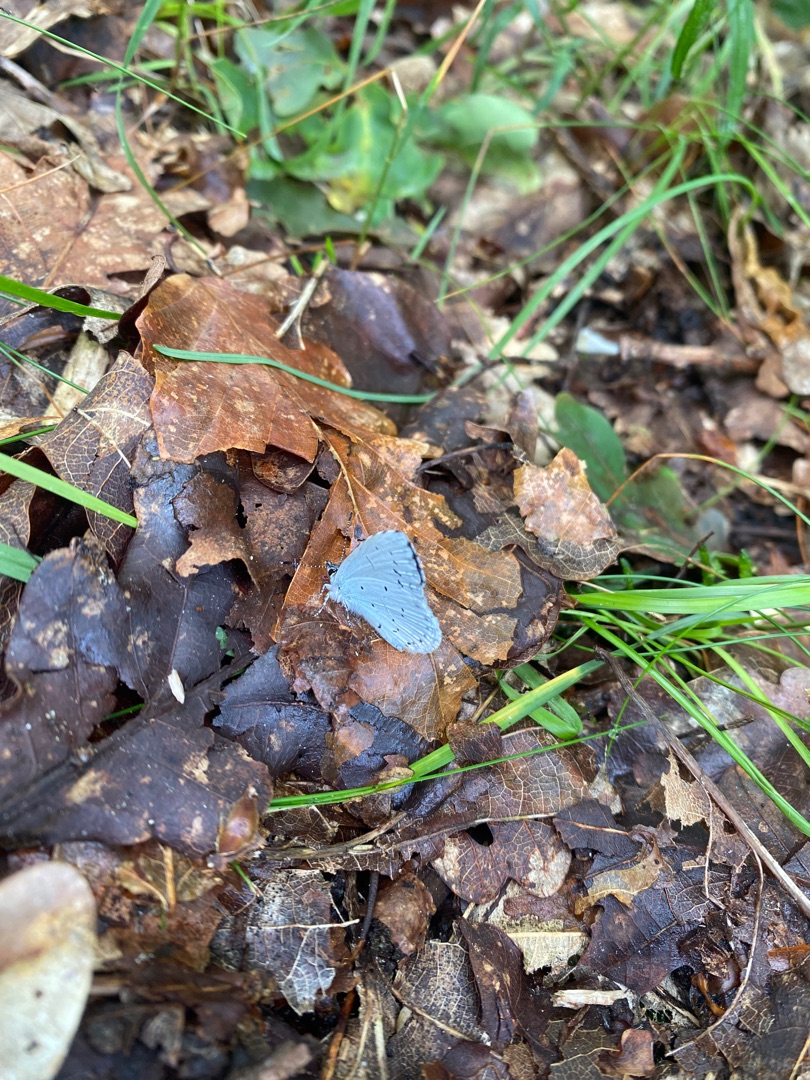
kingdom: Animalia
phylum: Arthropoda
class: Insecta
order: Lepidoptera
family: Lycaenidae
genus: Celastrina
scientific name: Celastrina argiolus
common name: Skovblåfugl
